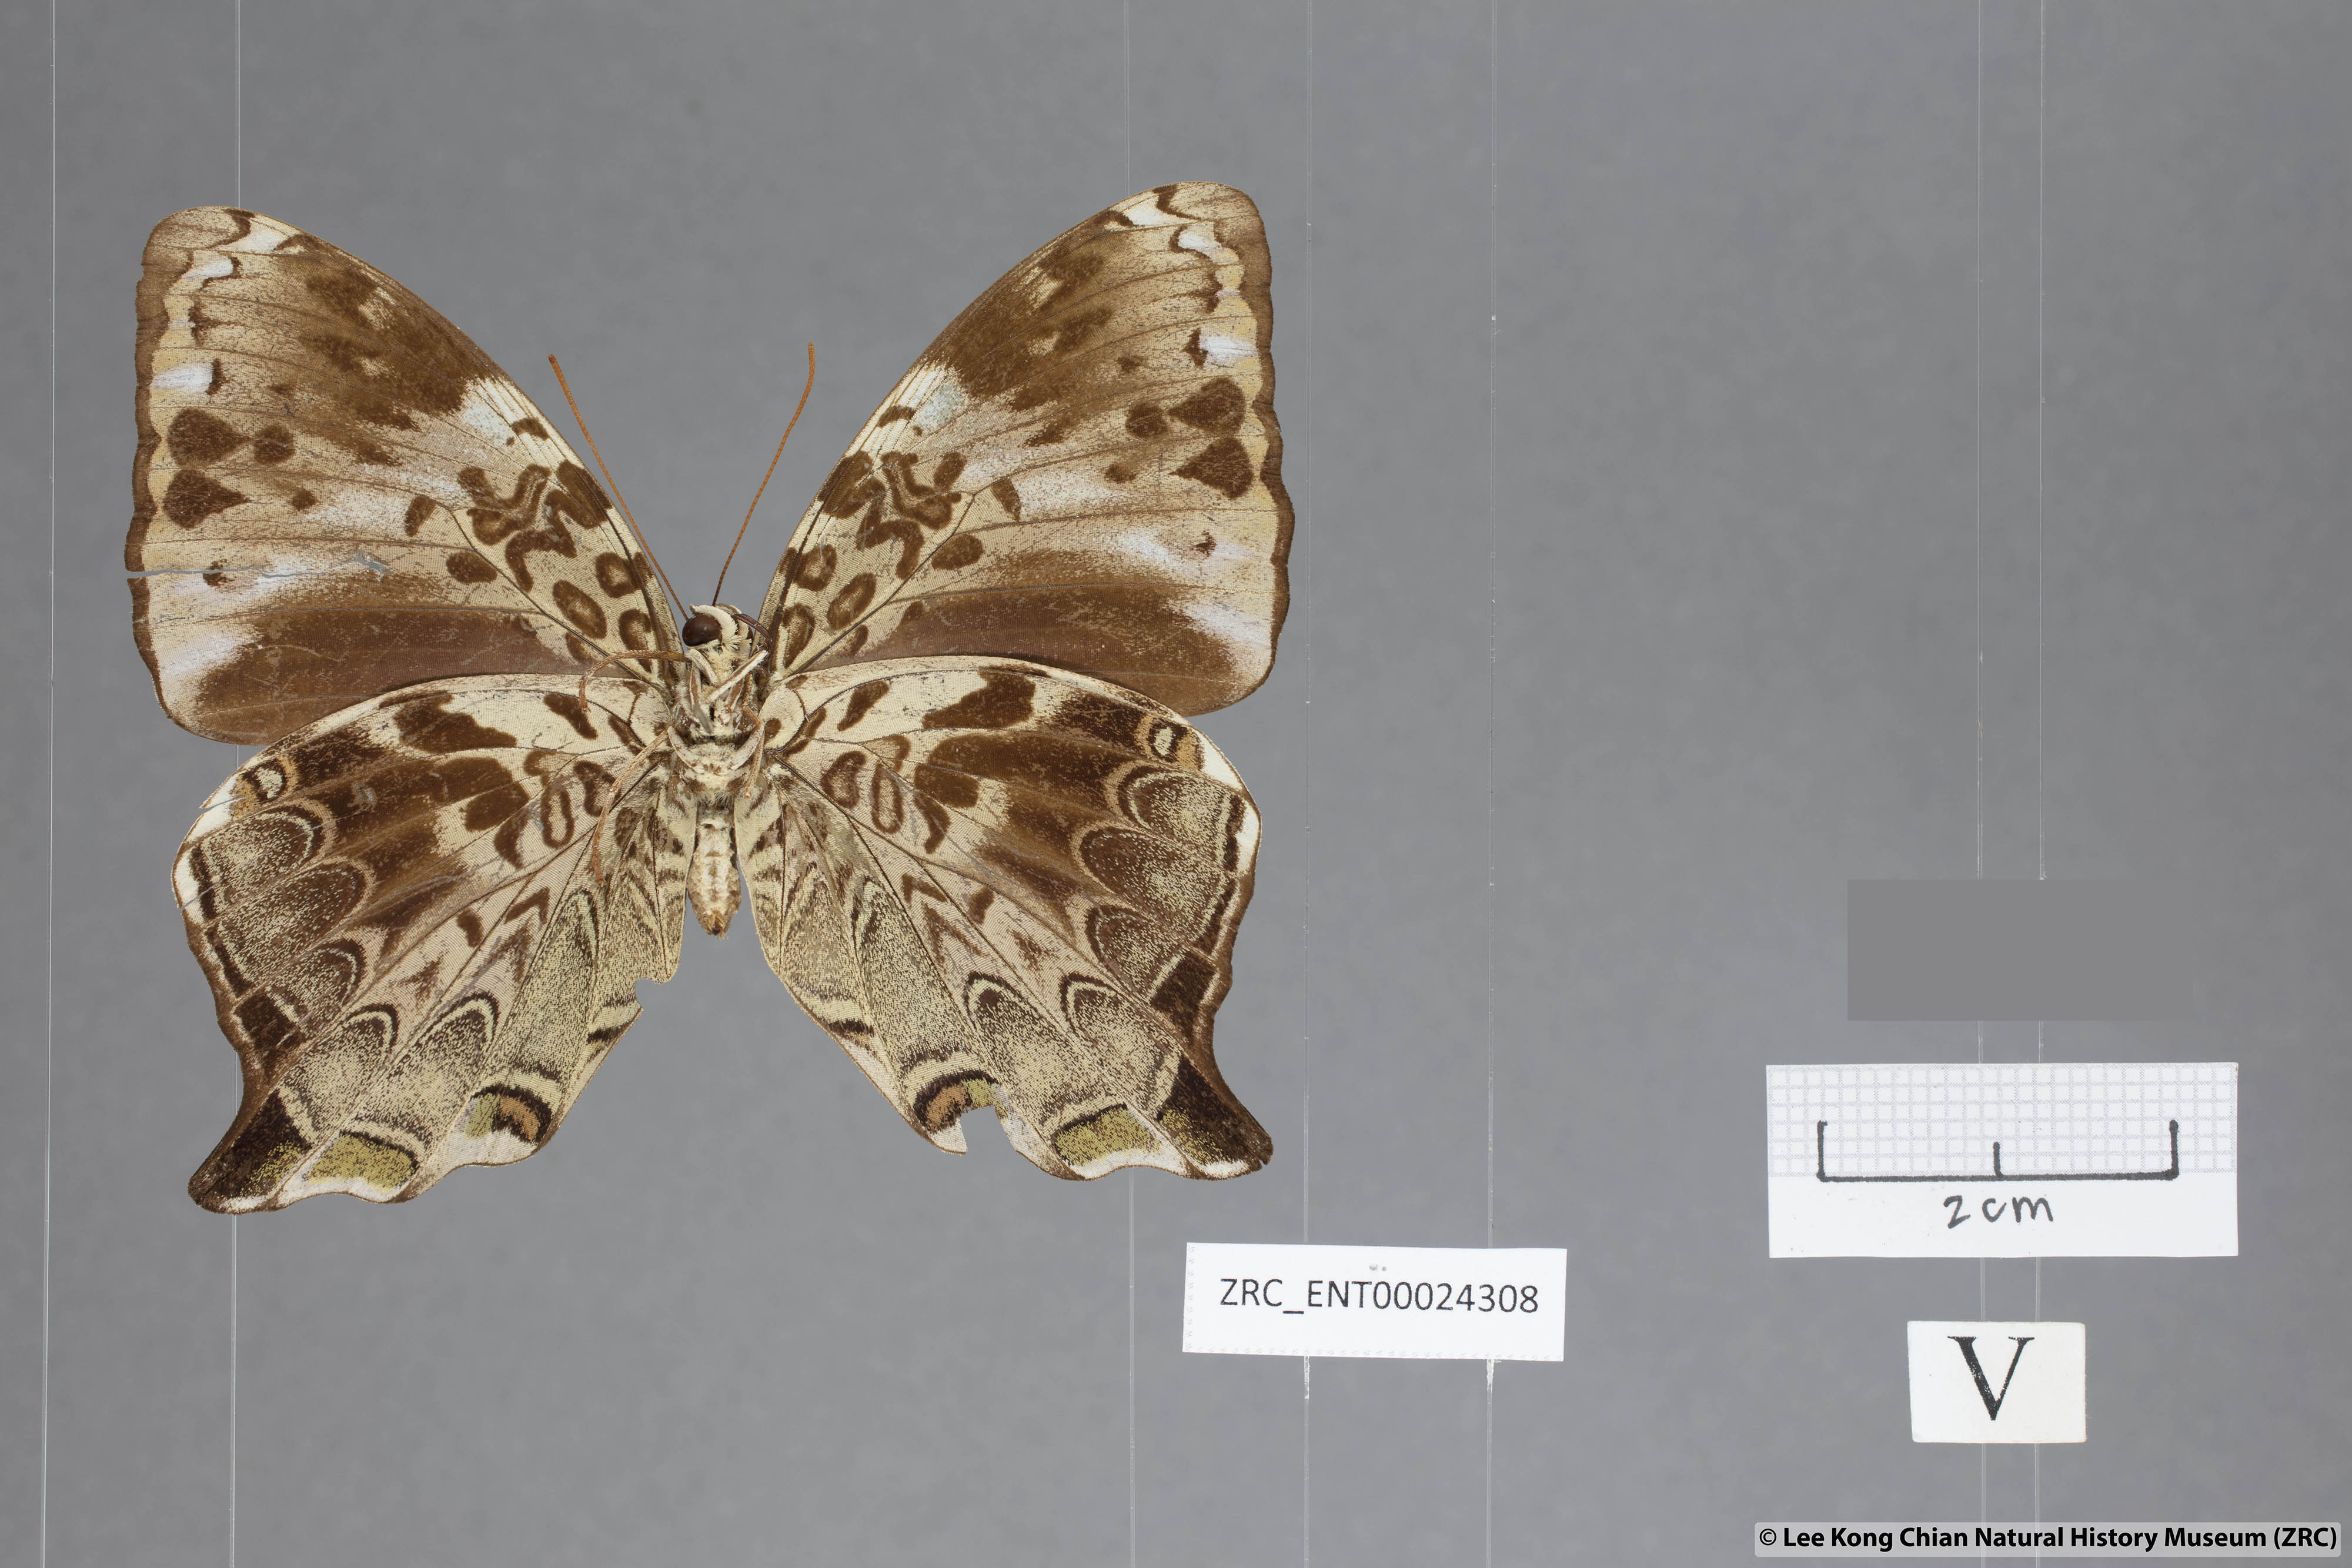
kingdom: Animalia
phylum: Arthropoda
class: Insecta
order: Lepidoptera
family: Nymphalidae
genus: Prothoe
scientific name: Prothoe
